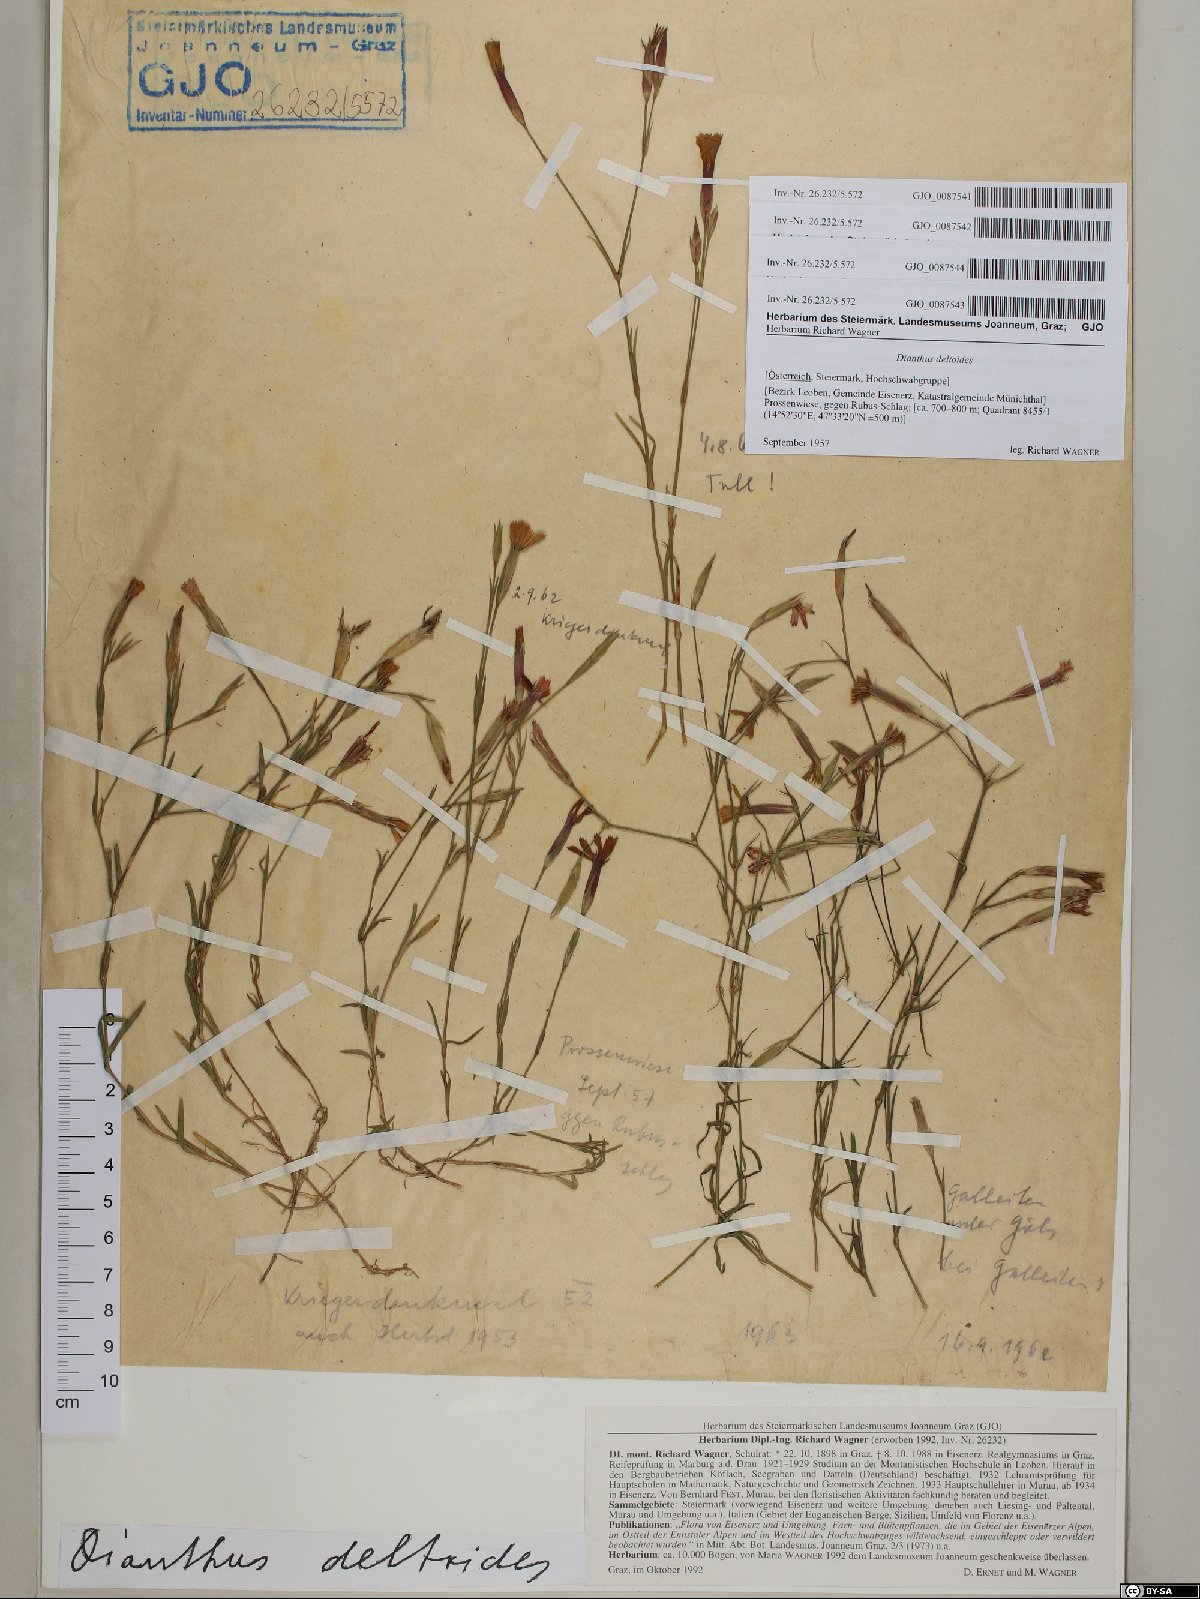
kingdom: Plantae
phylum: Tracheophyta
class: Magnoliopsida
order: Caryophyllales
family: Caryophyllaceae
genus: Dianthus
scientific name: Dianthus deltoides
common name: Maiden pink
